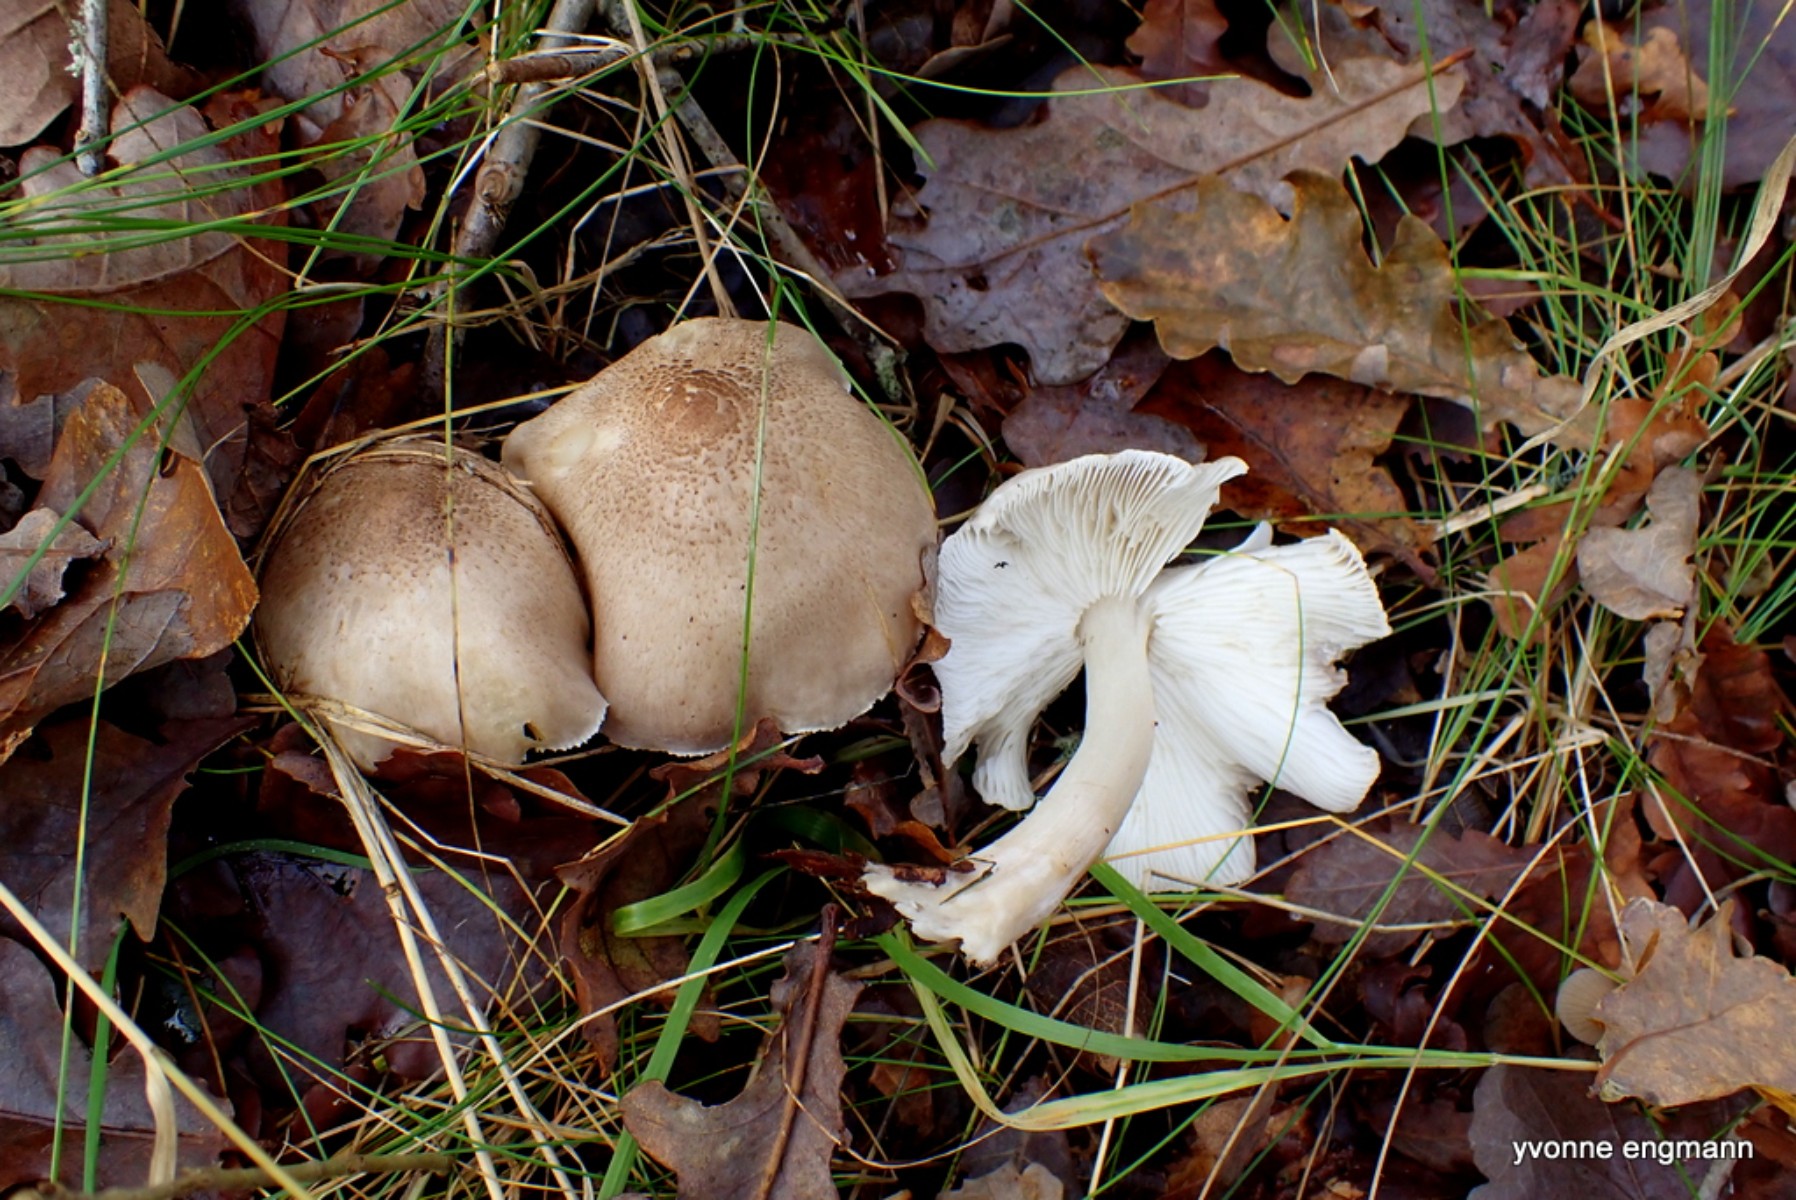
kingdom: Fungi
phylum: Basidiomycota
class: Agaricomycetes
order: Agaricales
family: Tricholomataceae
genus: Tricholoma
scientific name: Tricholoma scalpturatum
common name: gulplettet ridderhat
